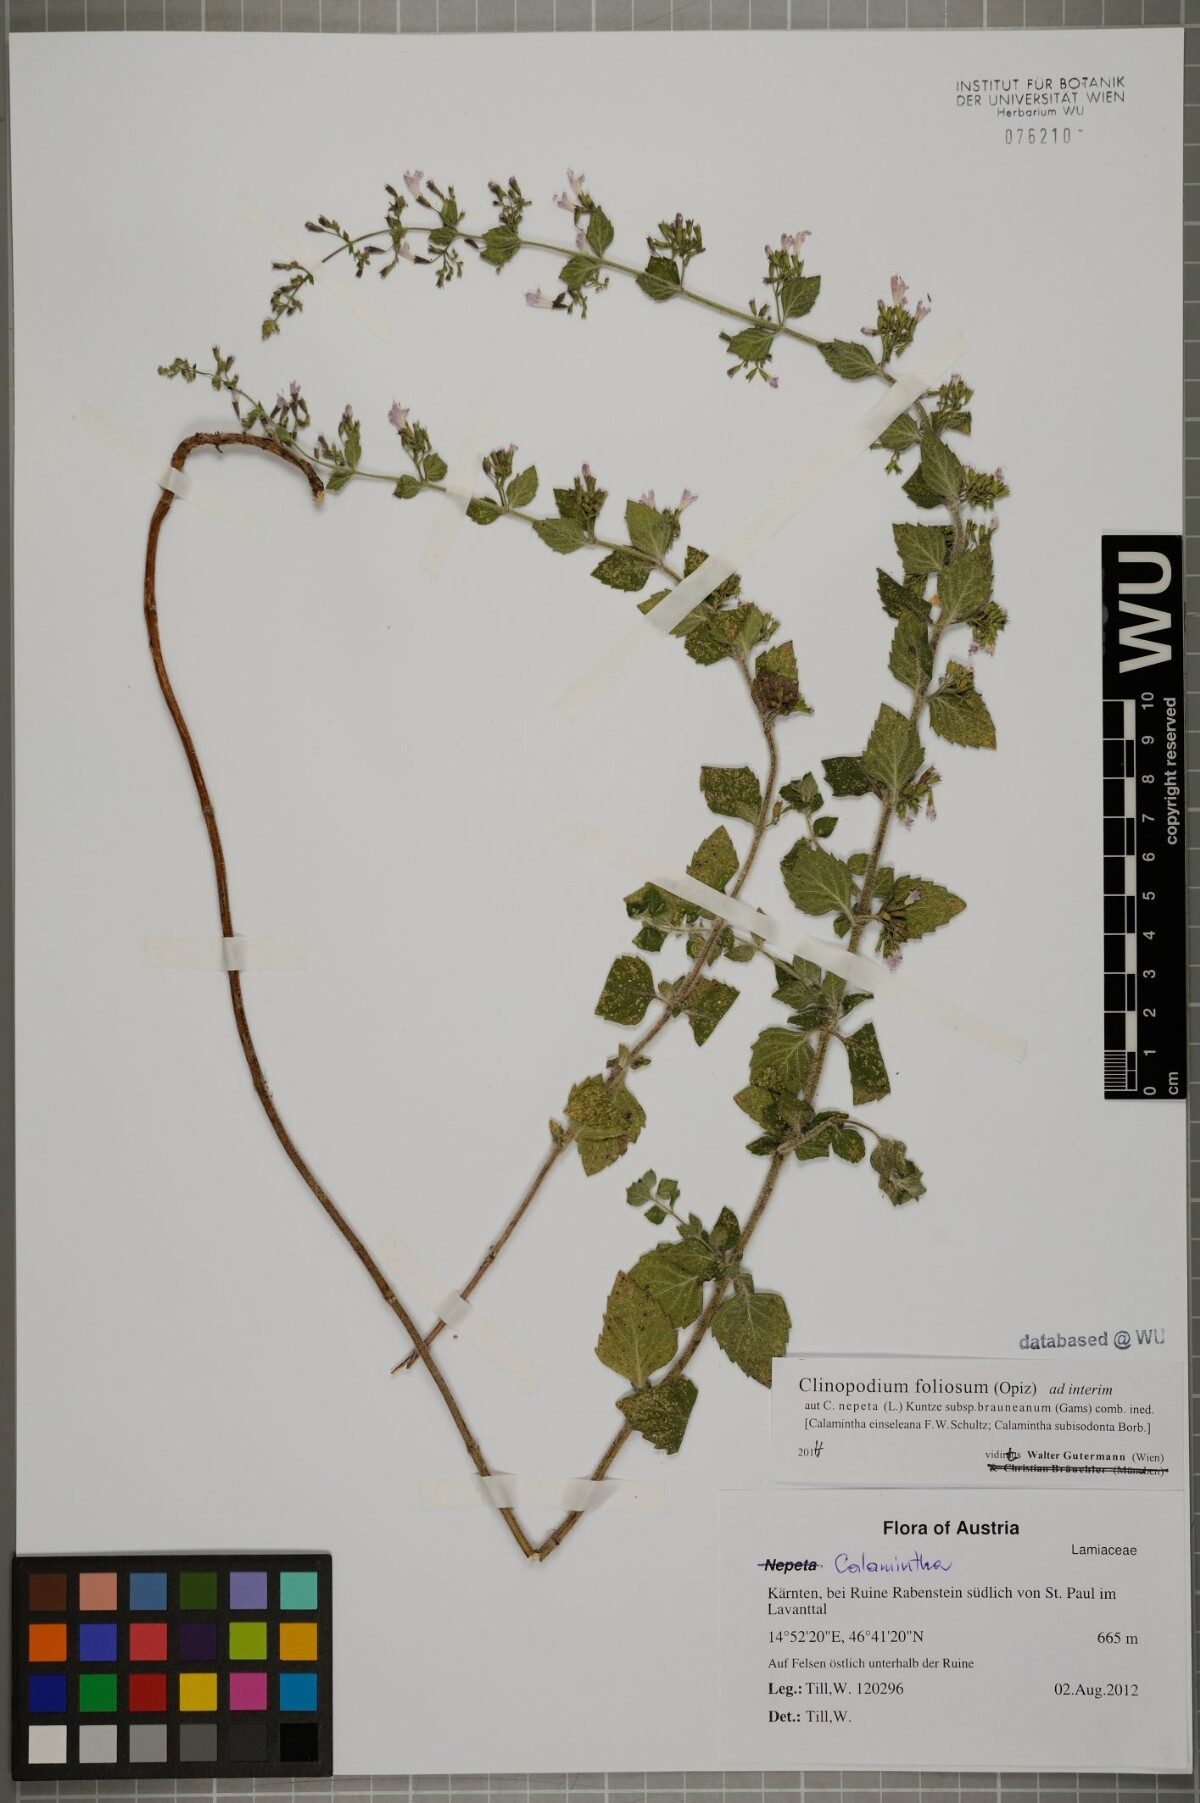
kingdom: Plantae
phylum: Tracheophyta
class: Magnoliopsida
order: Lamiales
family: Lamiaceae
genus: Clinopodium
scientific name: Clinopodium foliolosum
